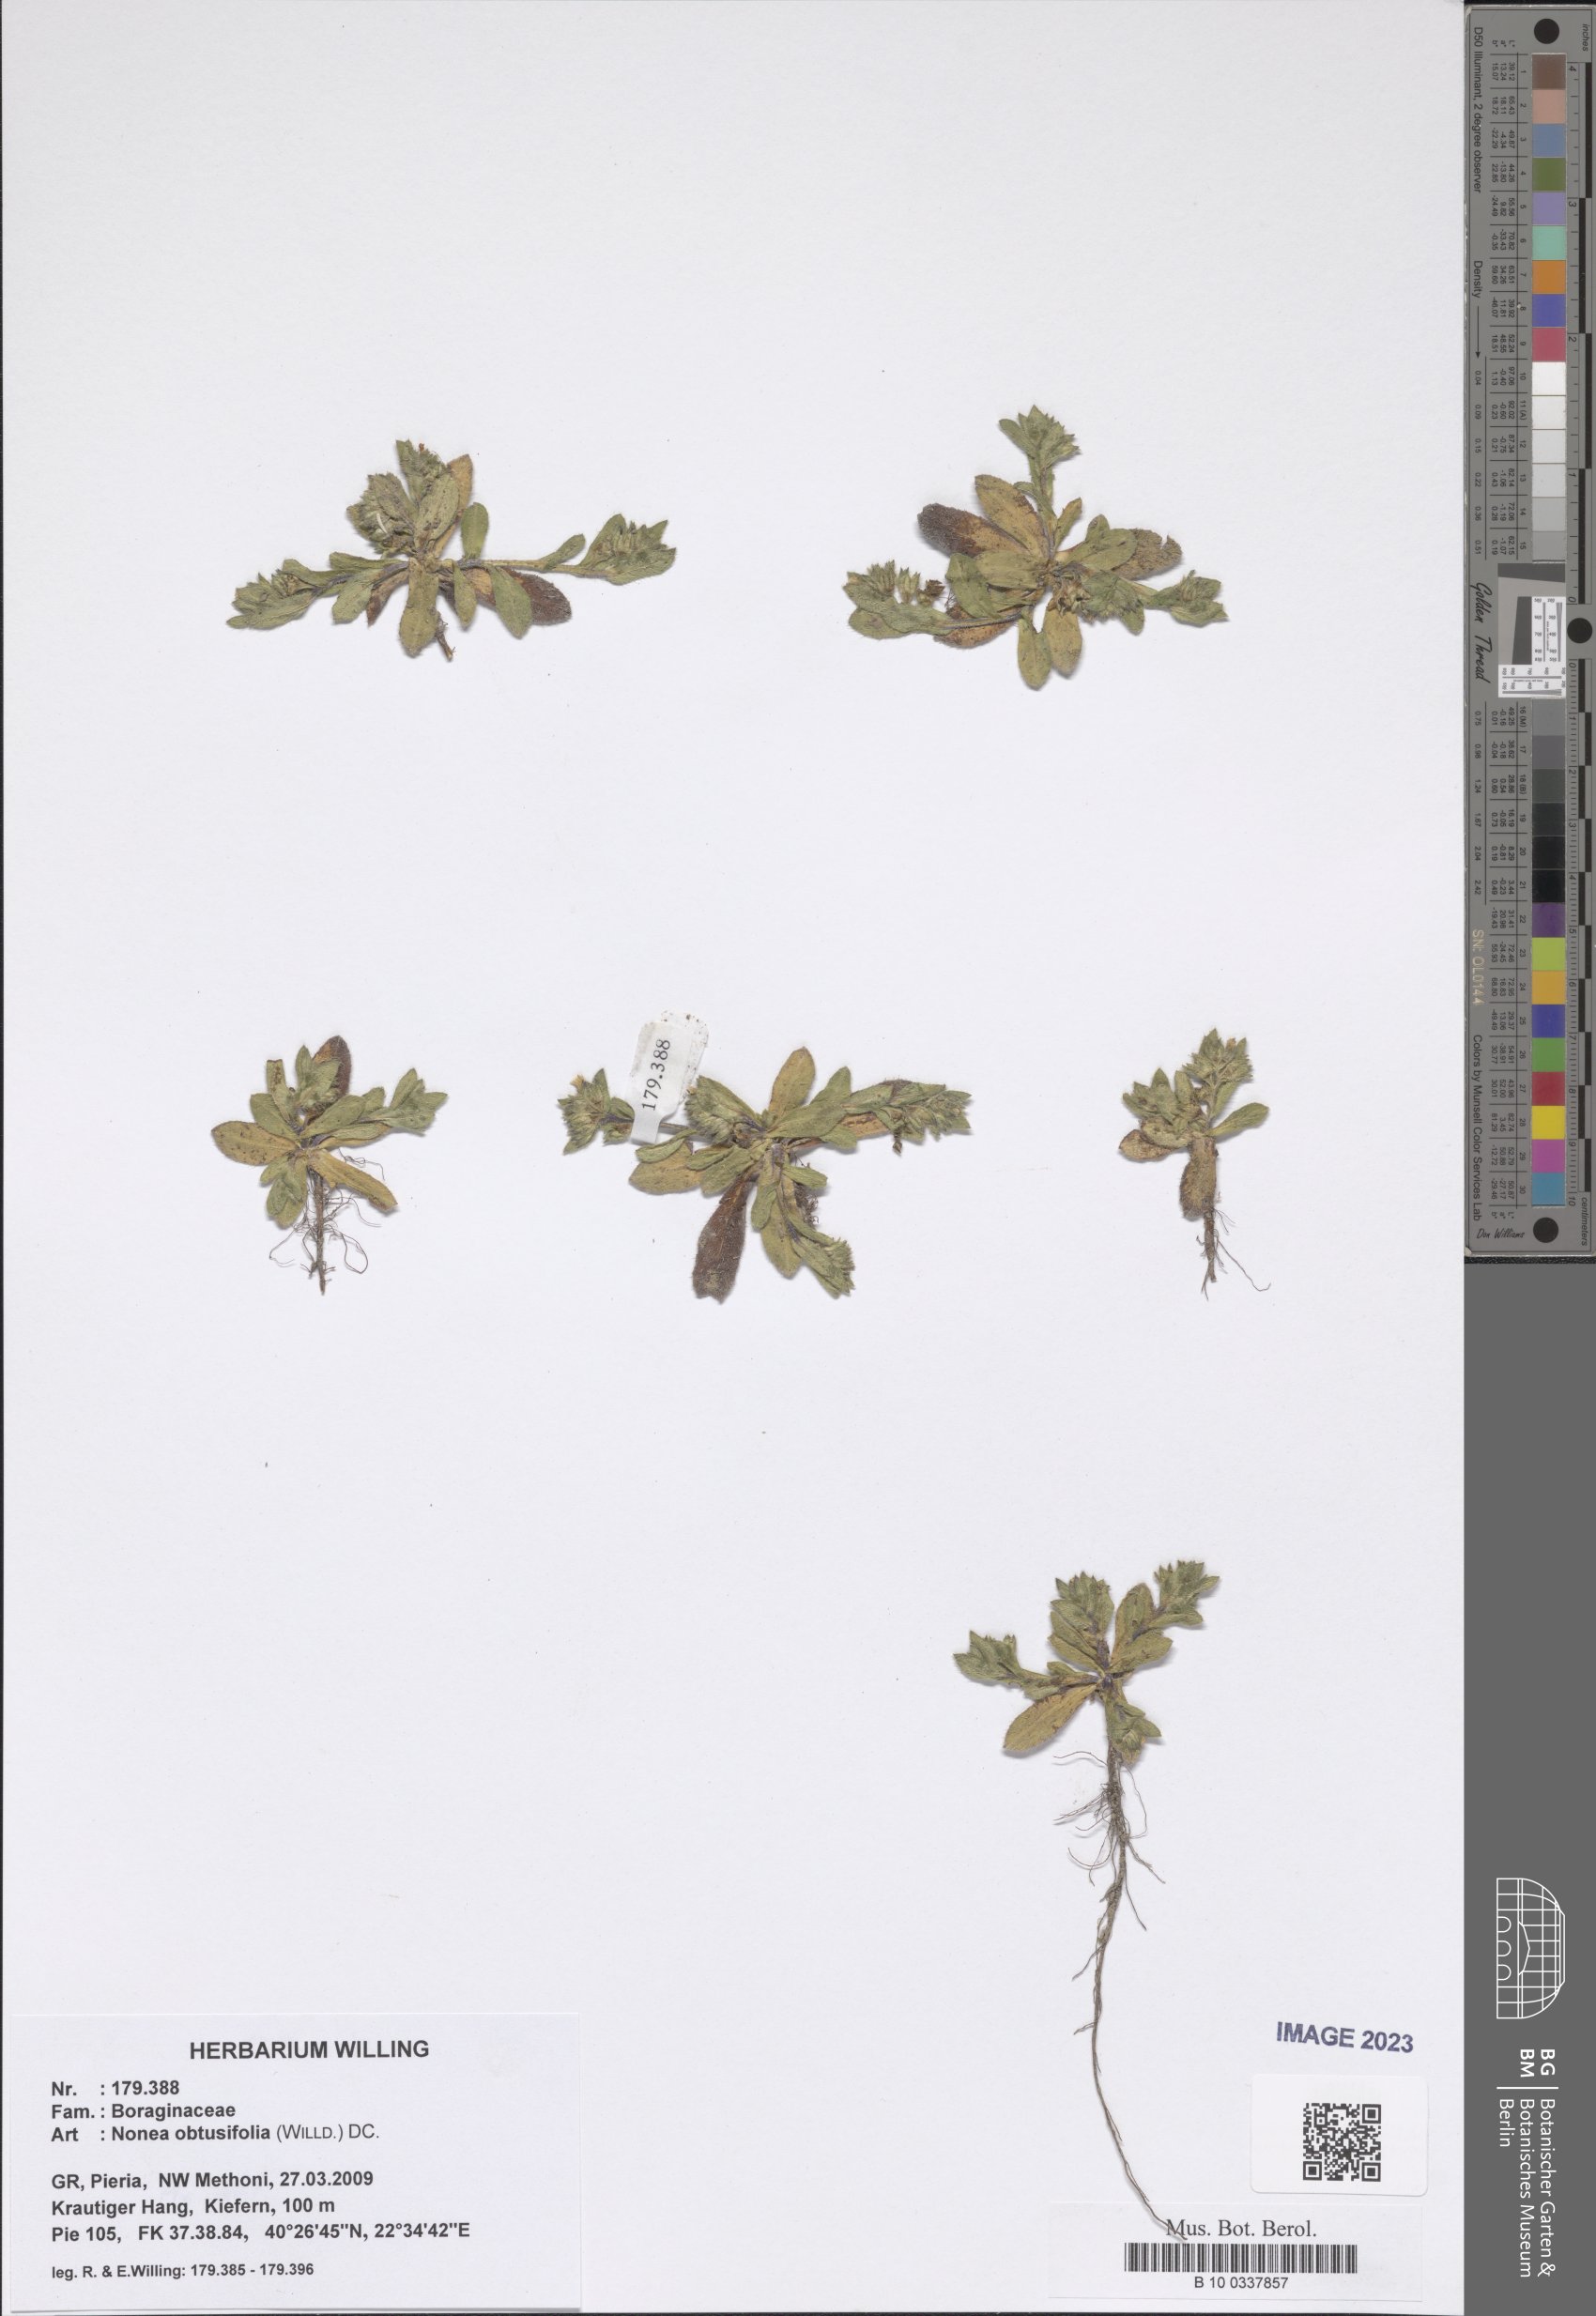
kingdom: Plantae
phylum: Tracheophyta
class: Magnoliopsida
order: Boraginales
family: Boraginaceae
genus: Melanortocarya
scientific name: Melanortocarya obtusifolia
